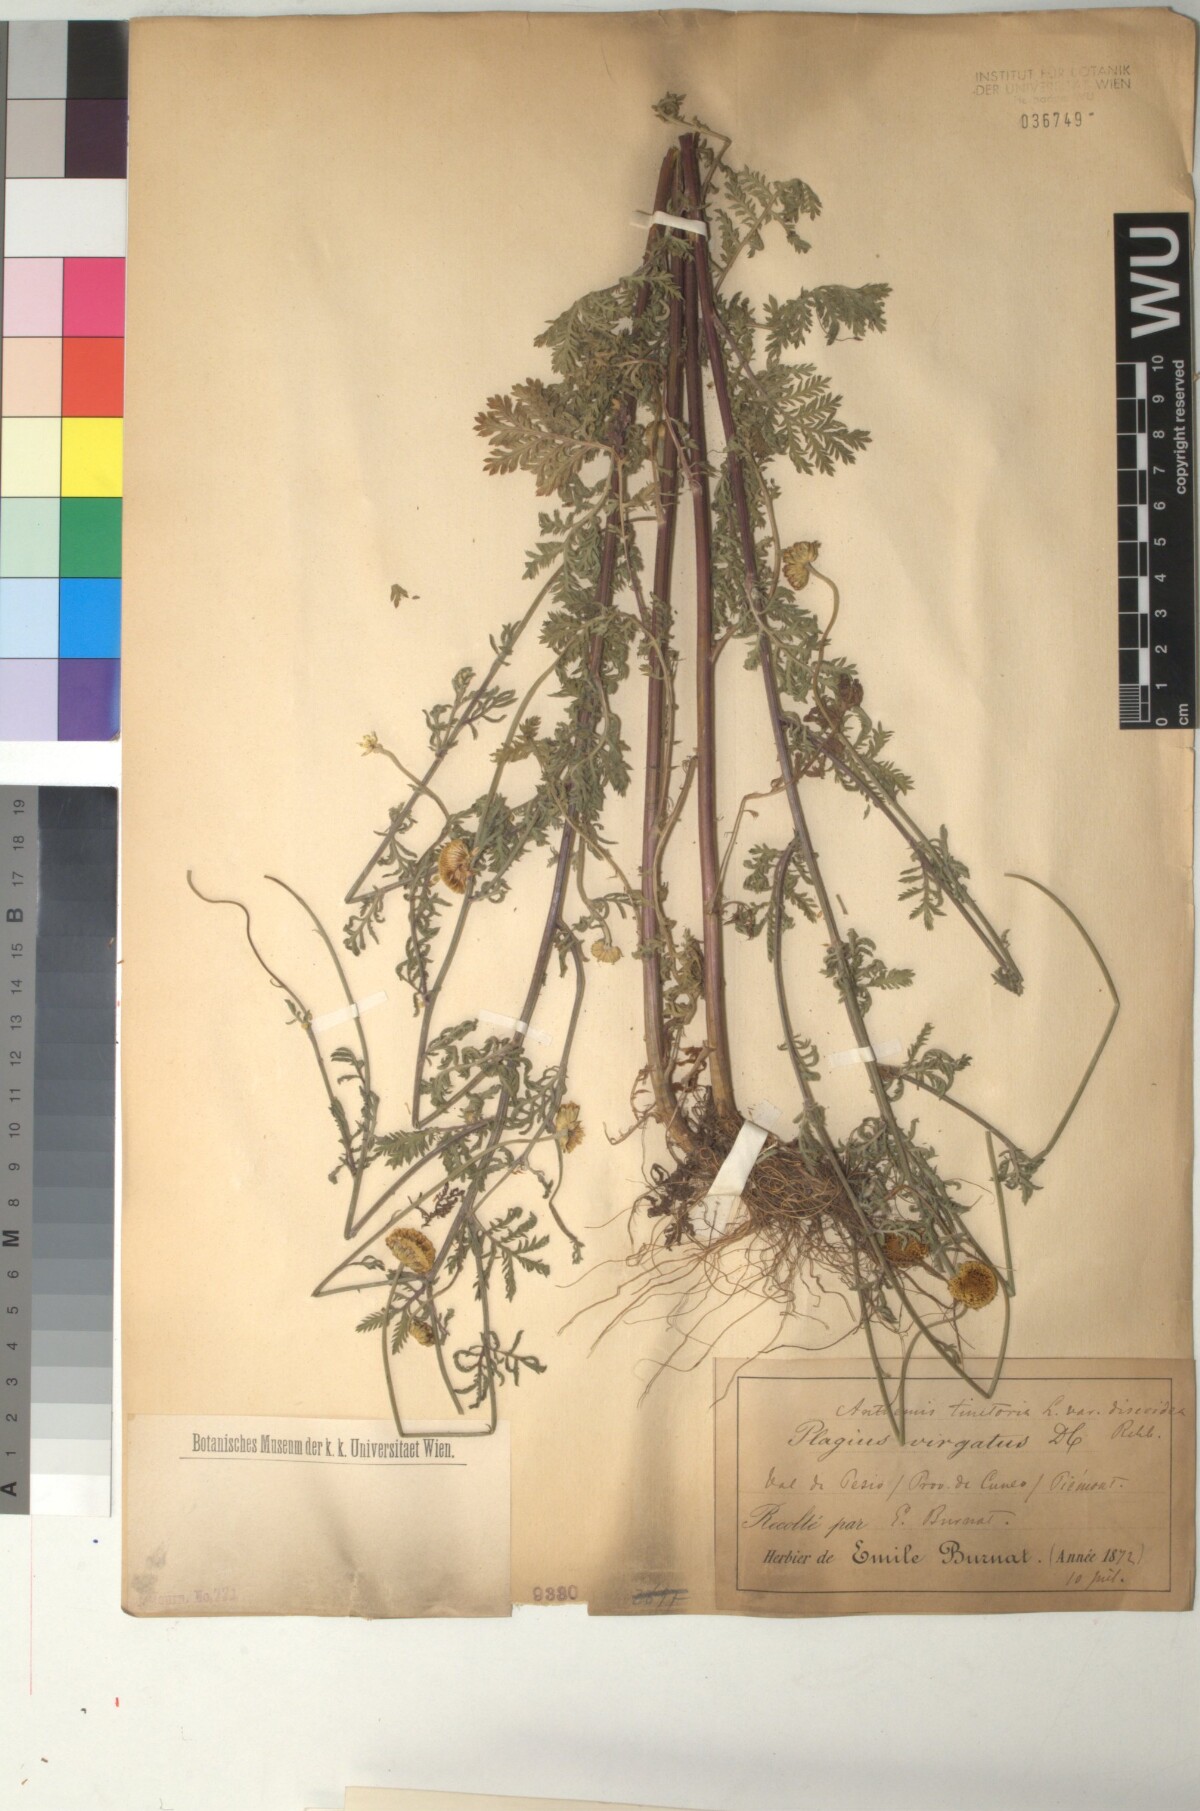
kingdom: Plantae
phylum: Tracheophyta
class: Magnoliopsida
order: Asterales
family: Asteraceae
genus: Cota
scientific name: Cota tinctoria
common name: Golden chamomile
